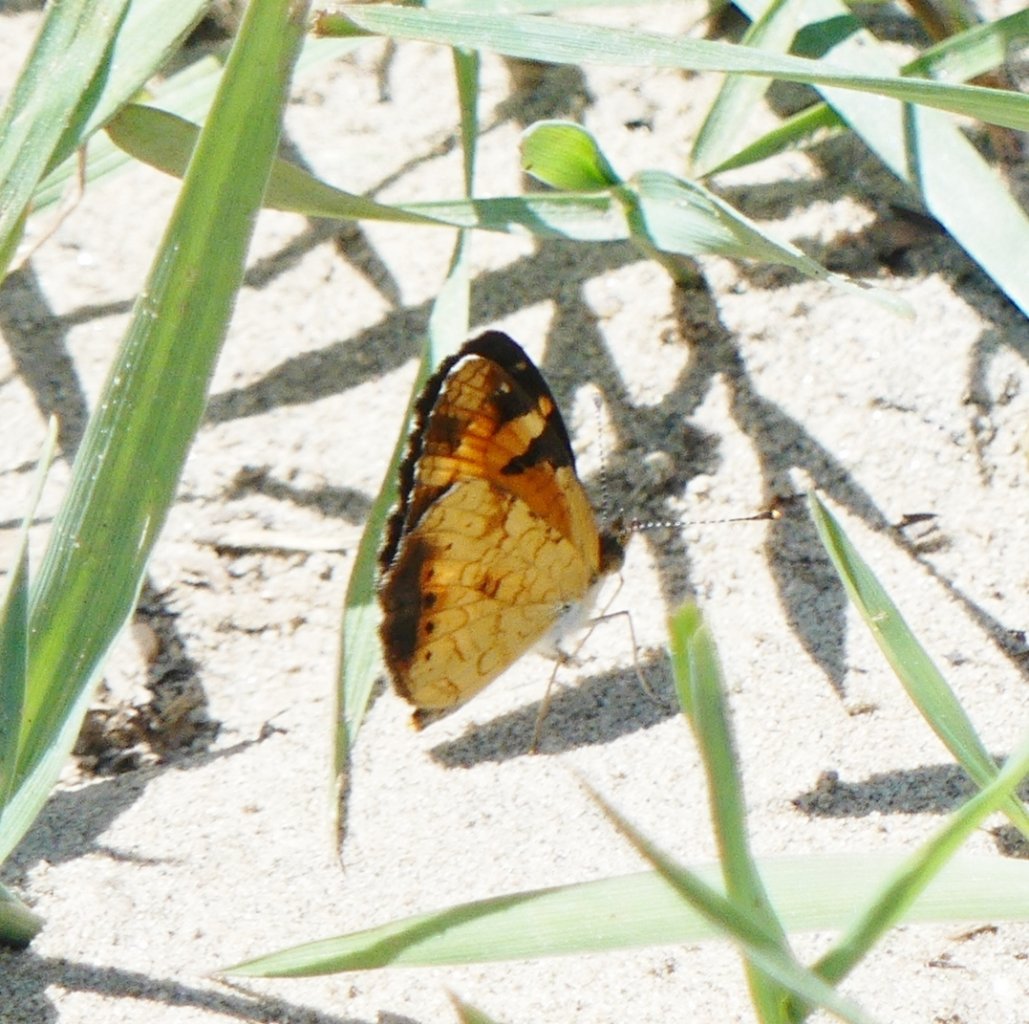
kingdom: Animalia
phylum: Arthropoda
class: Insecta
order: Lepidoptera
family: Nymphalidae
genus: Phyciodes
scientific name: Phyciodes tharos
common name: Northern Crescent
